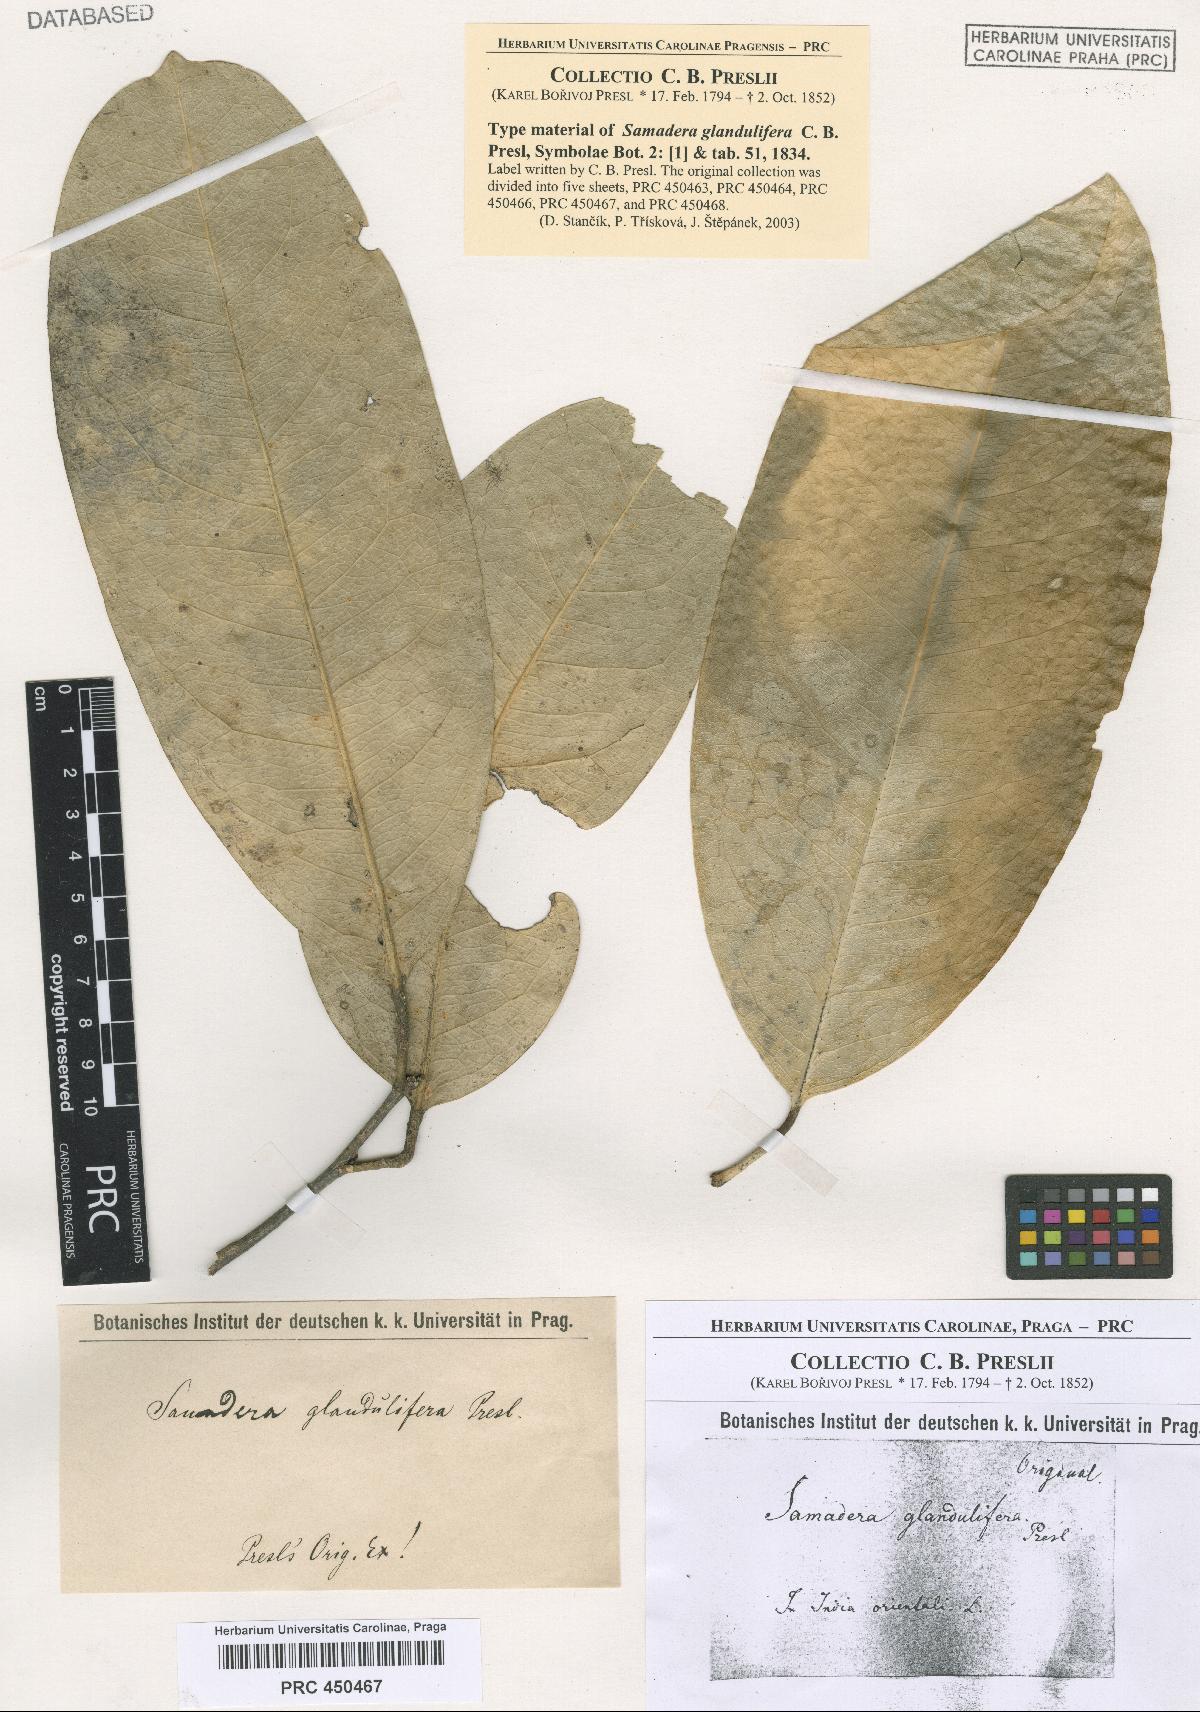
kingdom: Plantae
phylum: Tracheophyta
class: Magnoliopsida
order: Sapindales
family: Simaroubaceae
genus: Samadera
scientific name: Samadera indica
